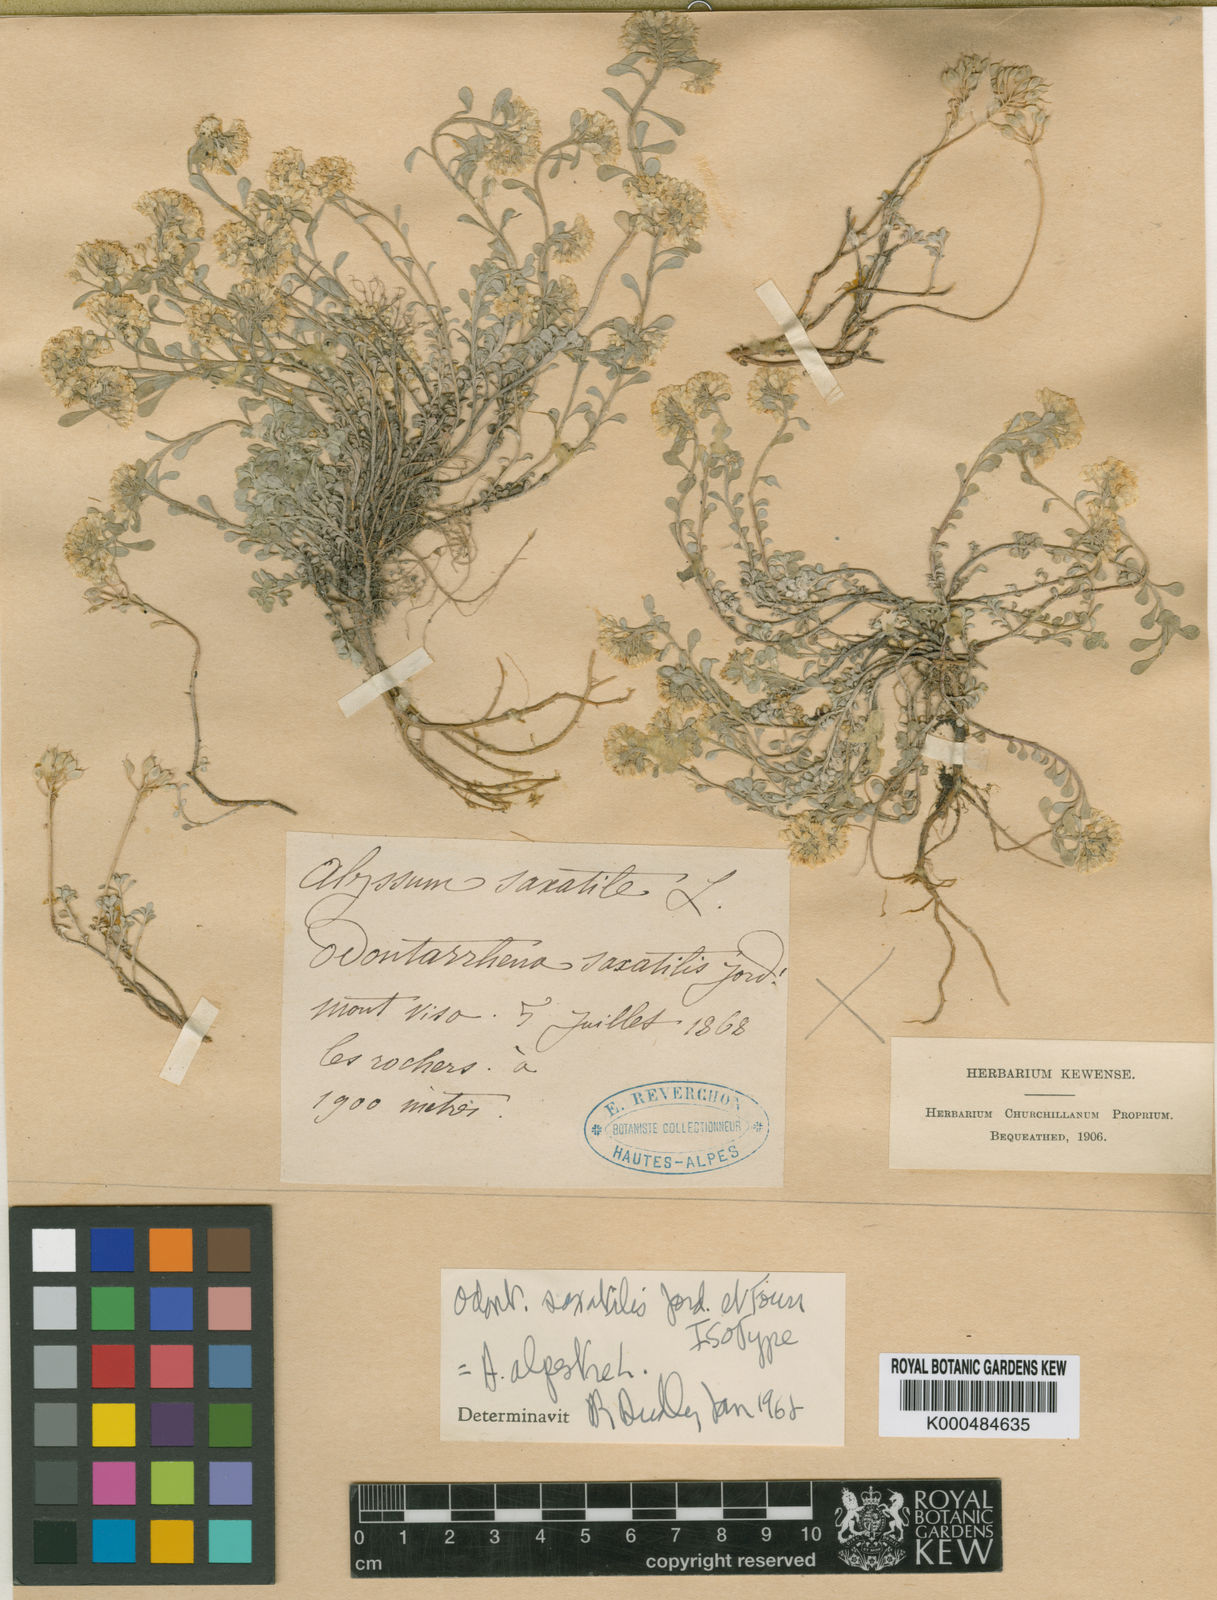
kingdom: Plantae
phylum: Tracheophyta
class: Magnoliopsida
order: Brassicales
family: Brassicaceae
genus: Odontarrhena
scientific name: Odontarrhena alpestris
